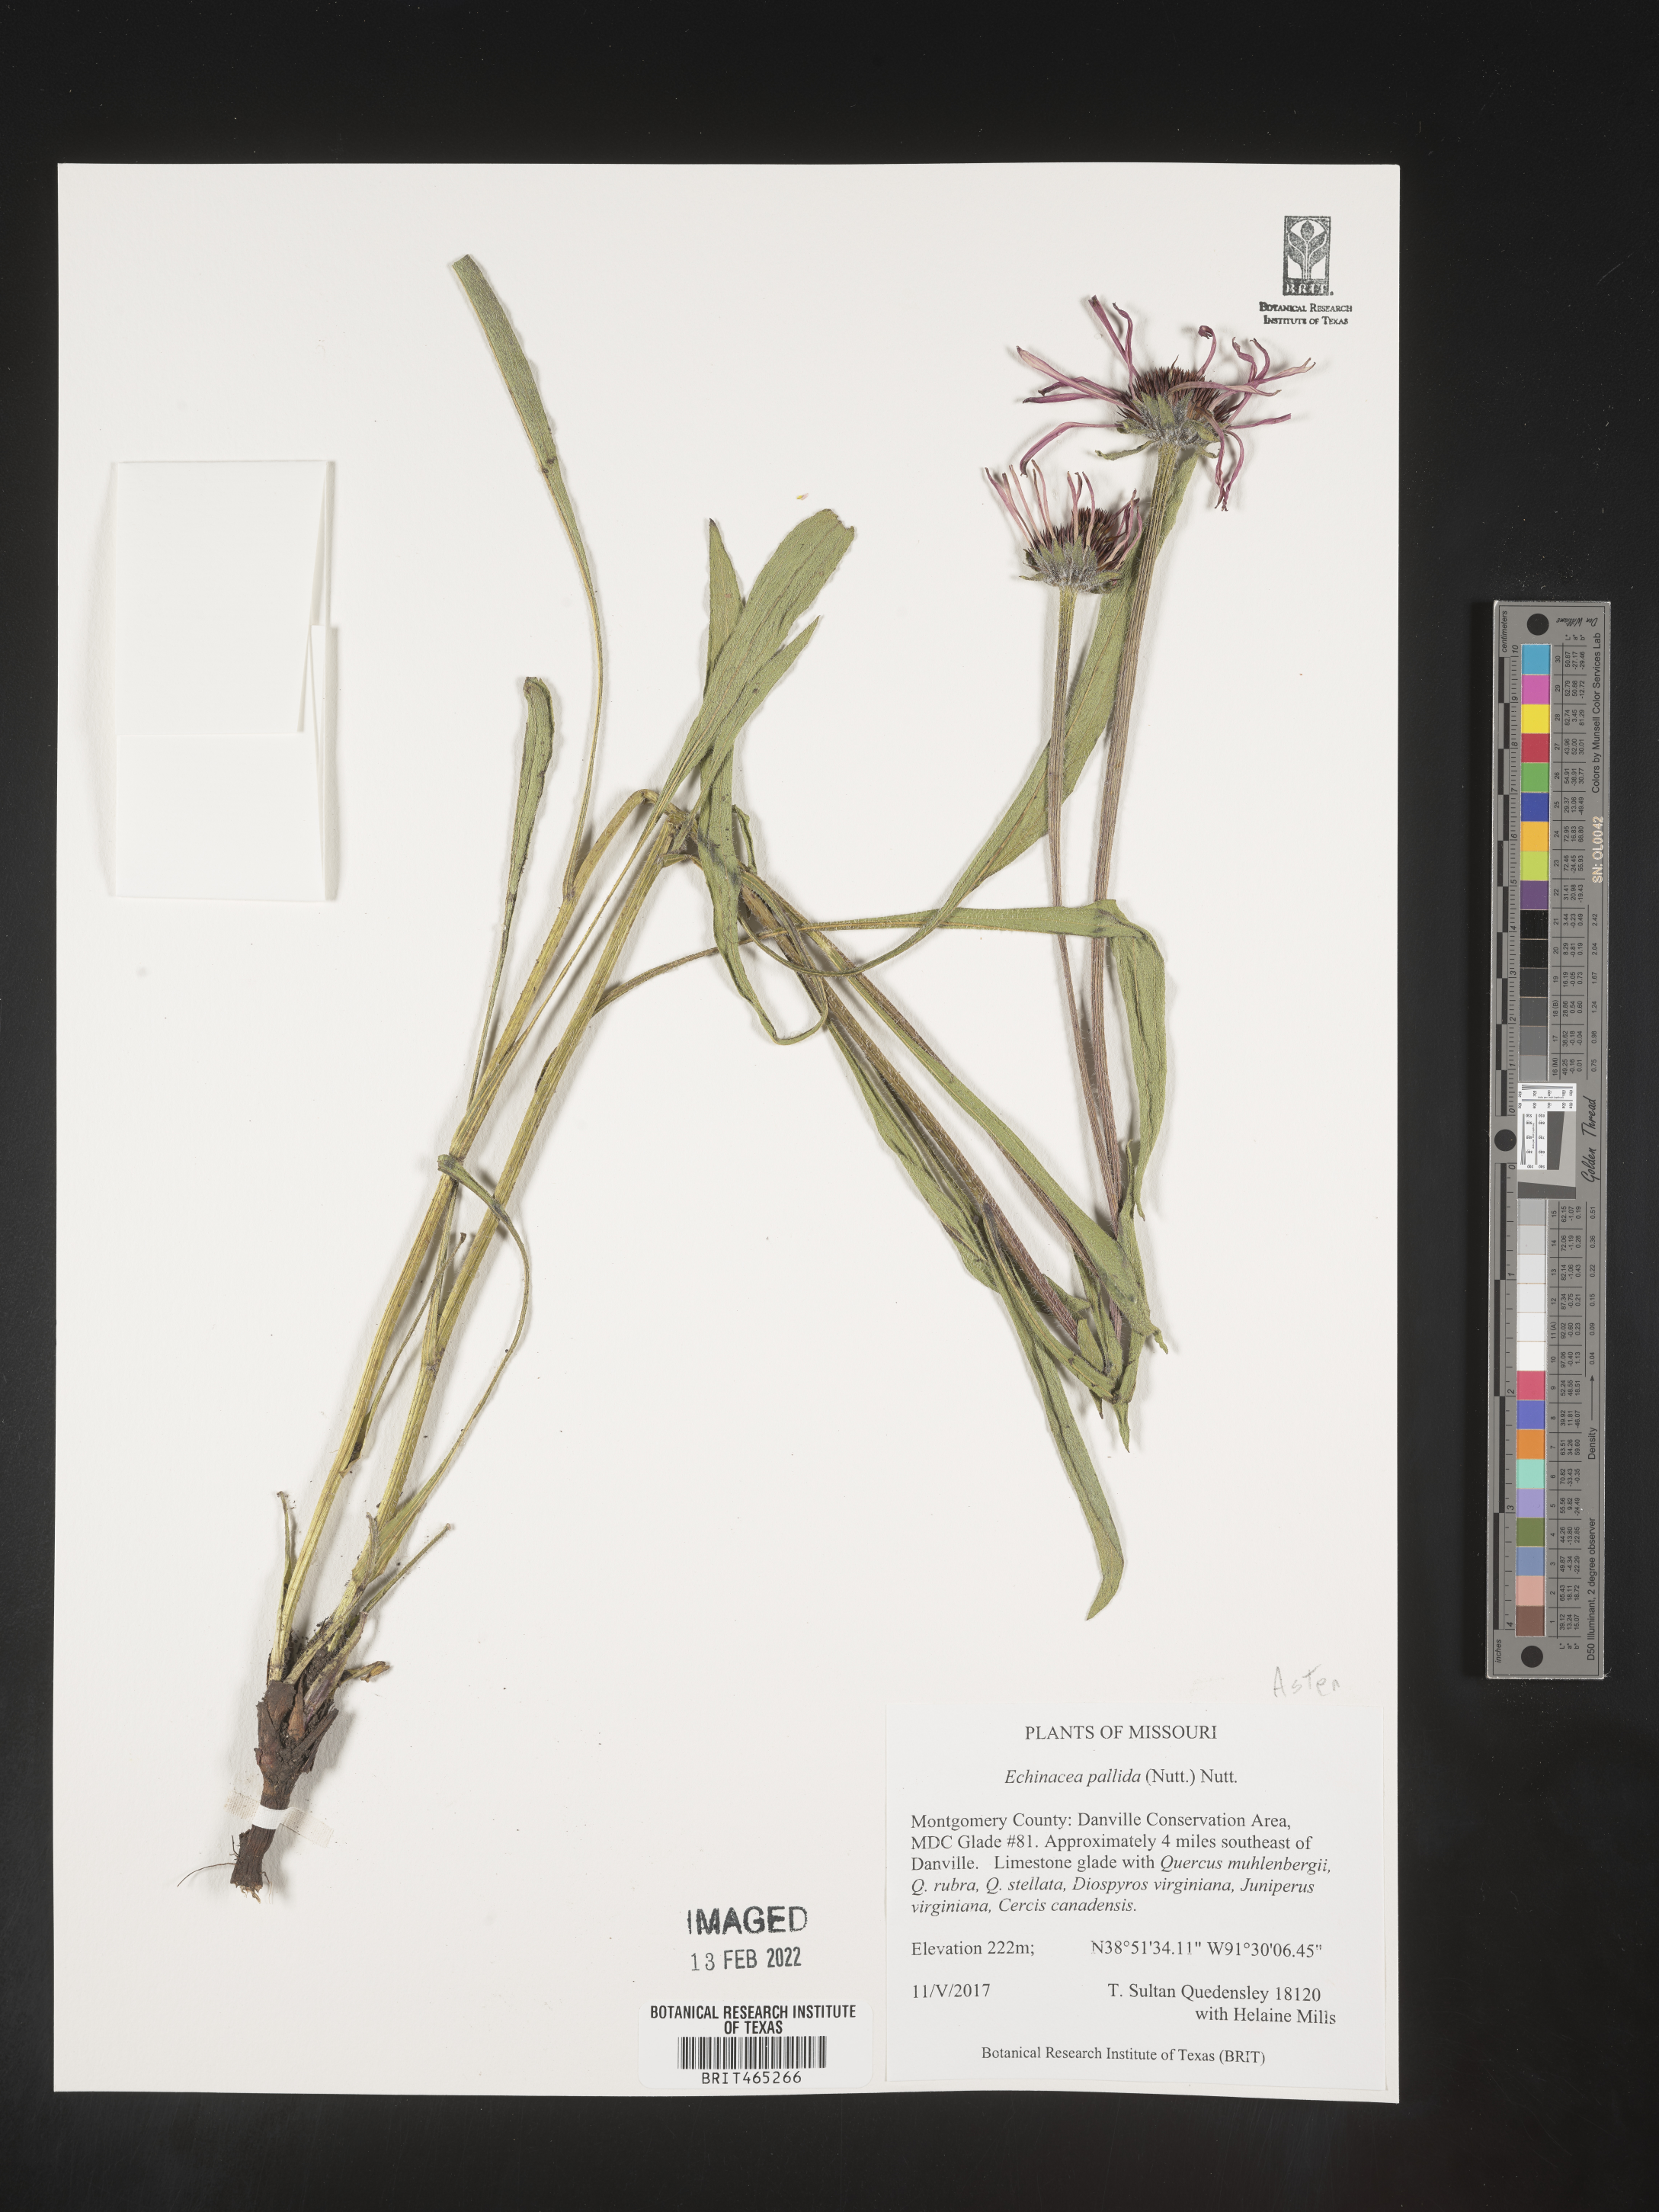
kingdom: Plantae
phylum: Tracheophyta
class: Magnoliopsida
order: Asterales
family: Asteraceae
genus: Echinacea
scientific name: Echinacea pallida
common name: Pale echinacea
